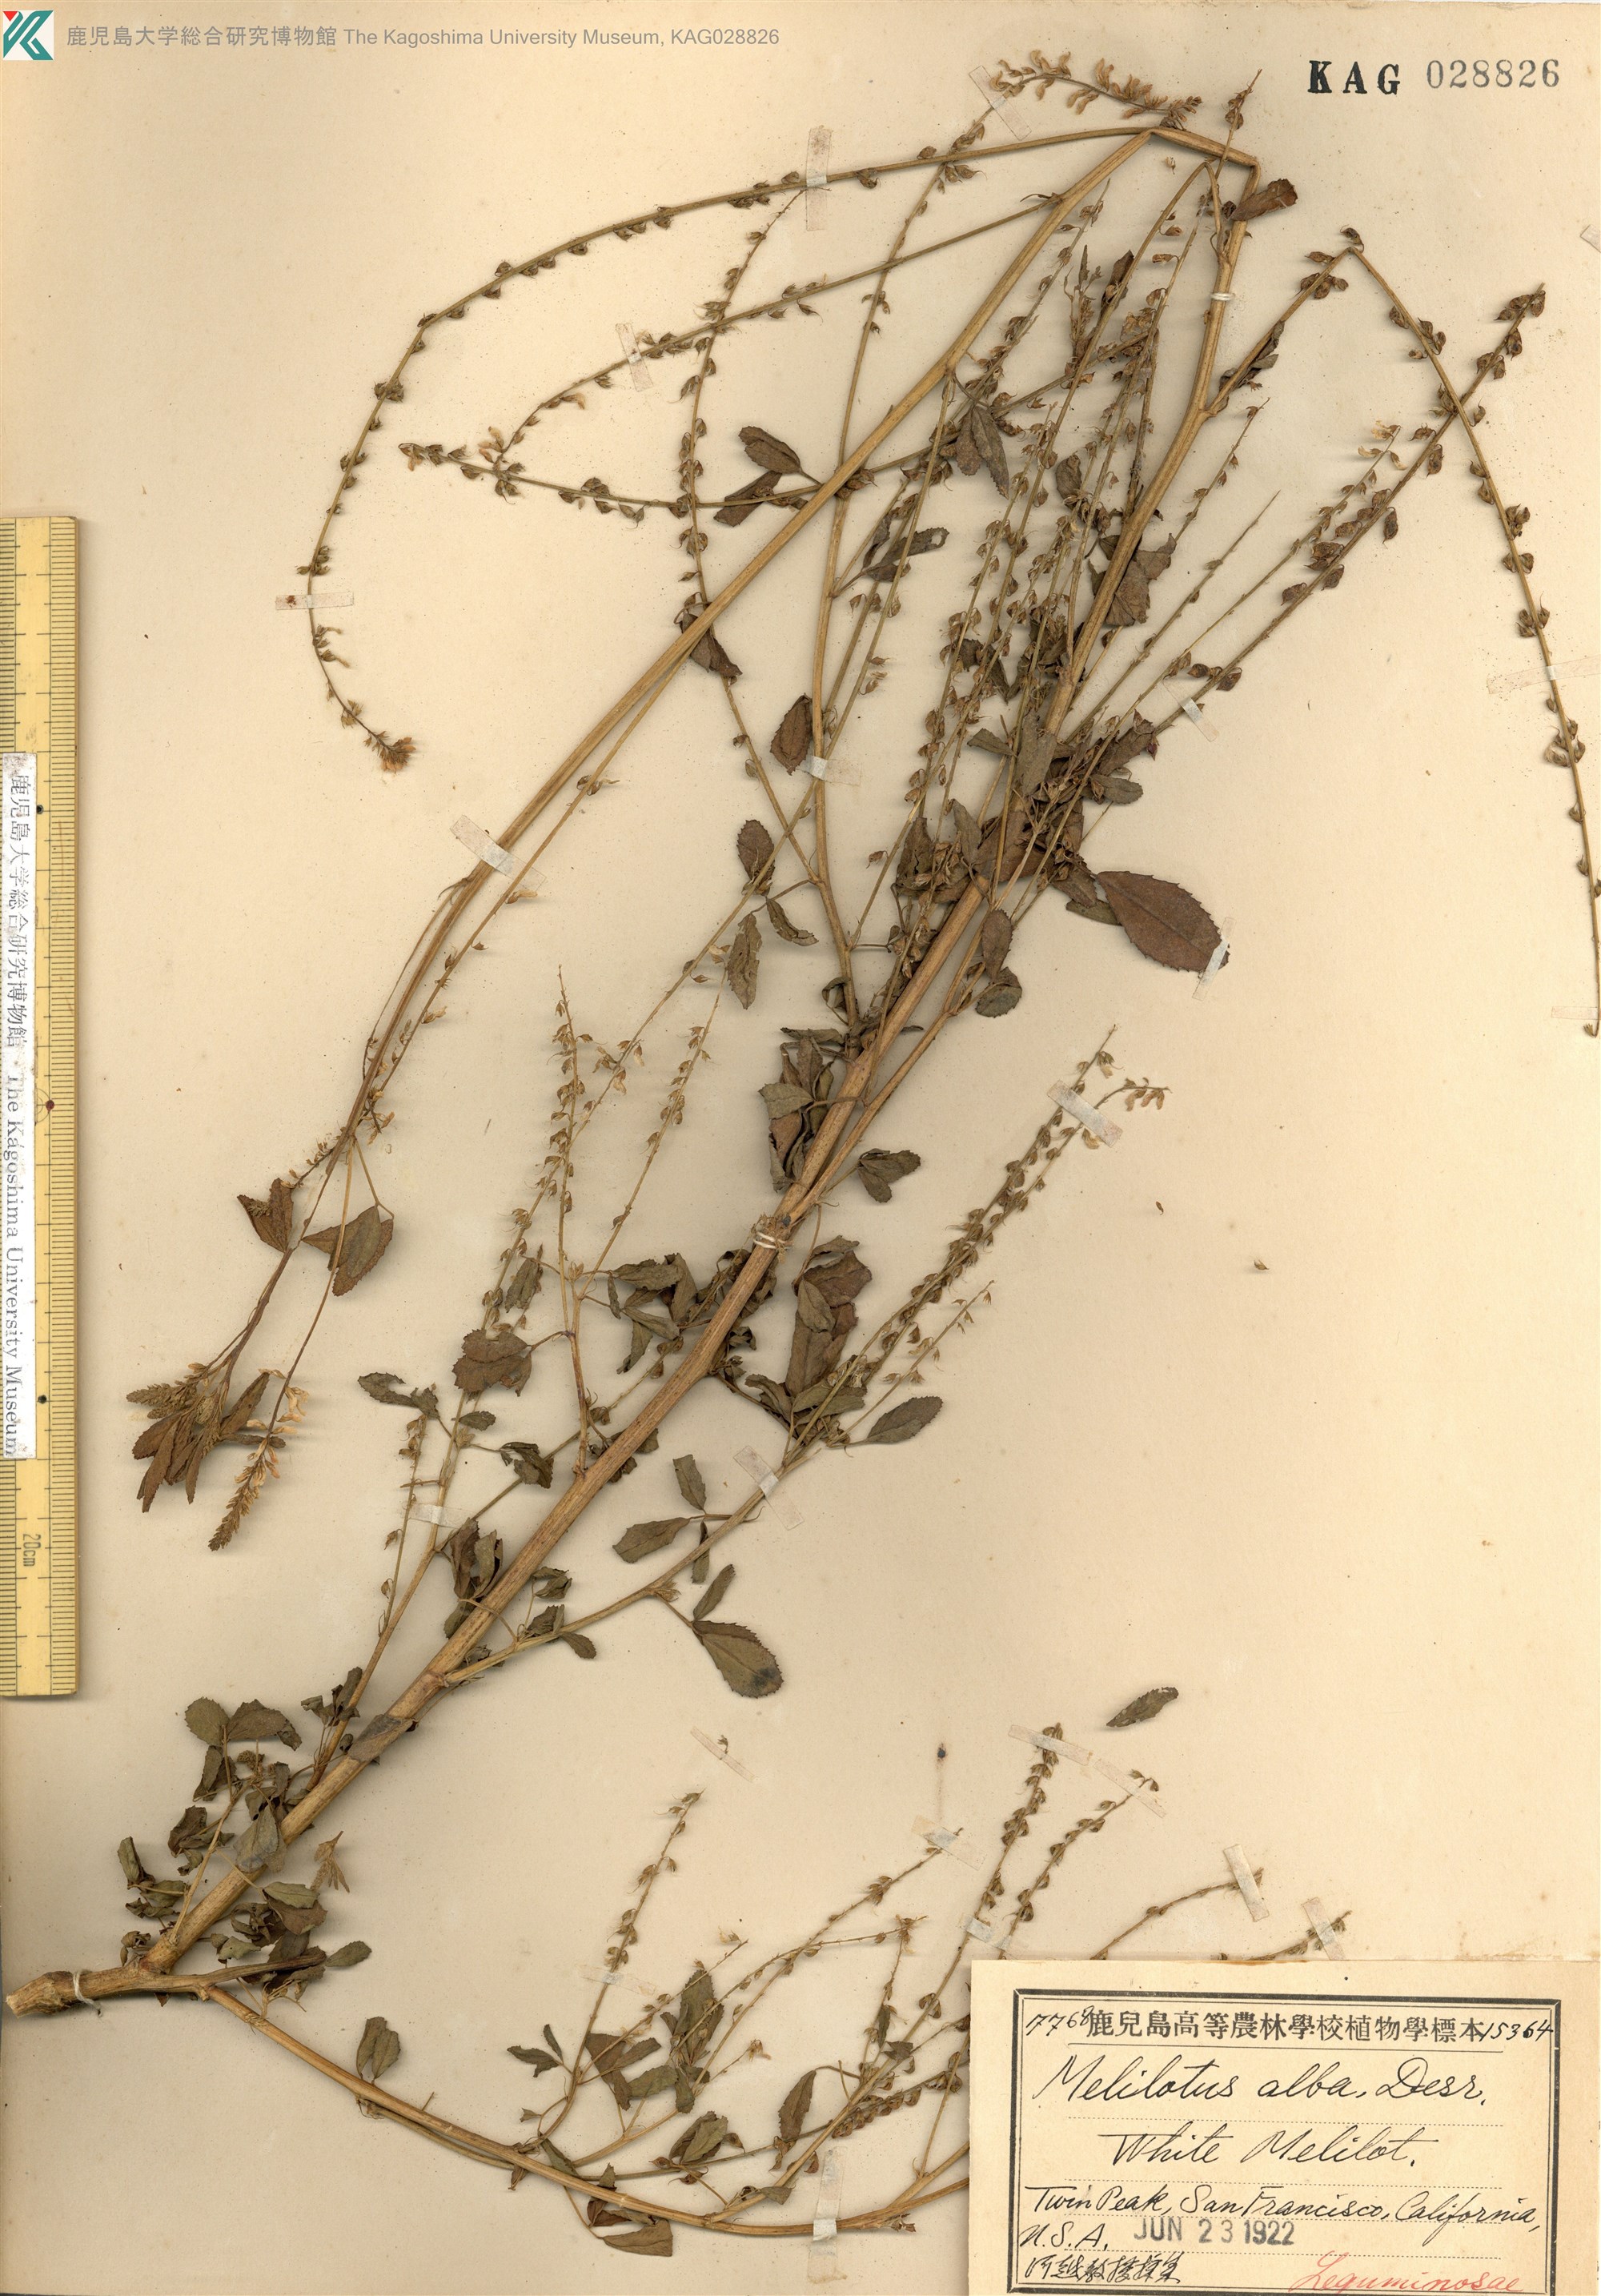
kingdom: Plantae
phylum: Tracheophyta
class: Magnoliopsida
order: Fabales
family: Fabaceae
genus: Melilotus
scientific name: Melilotus albus
